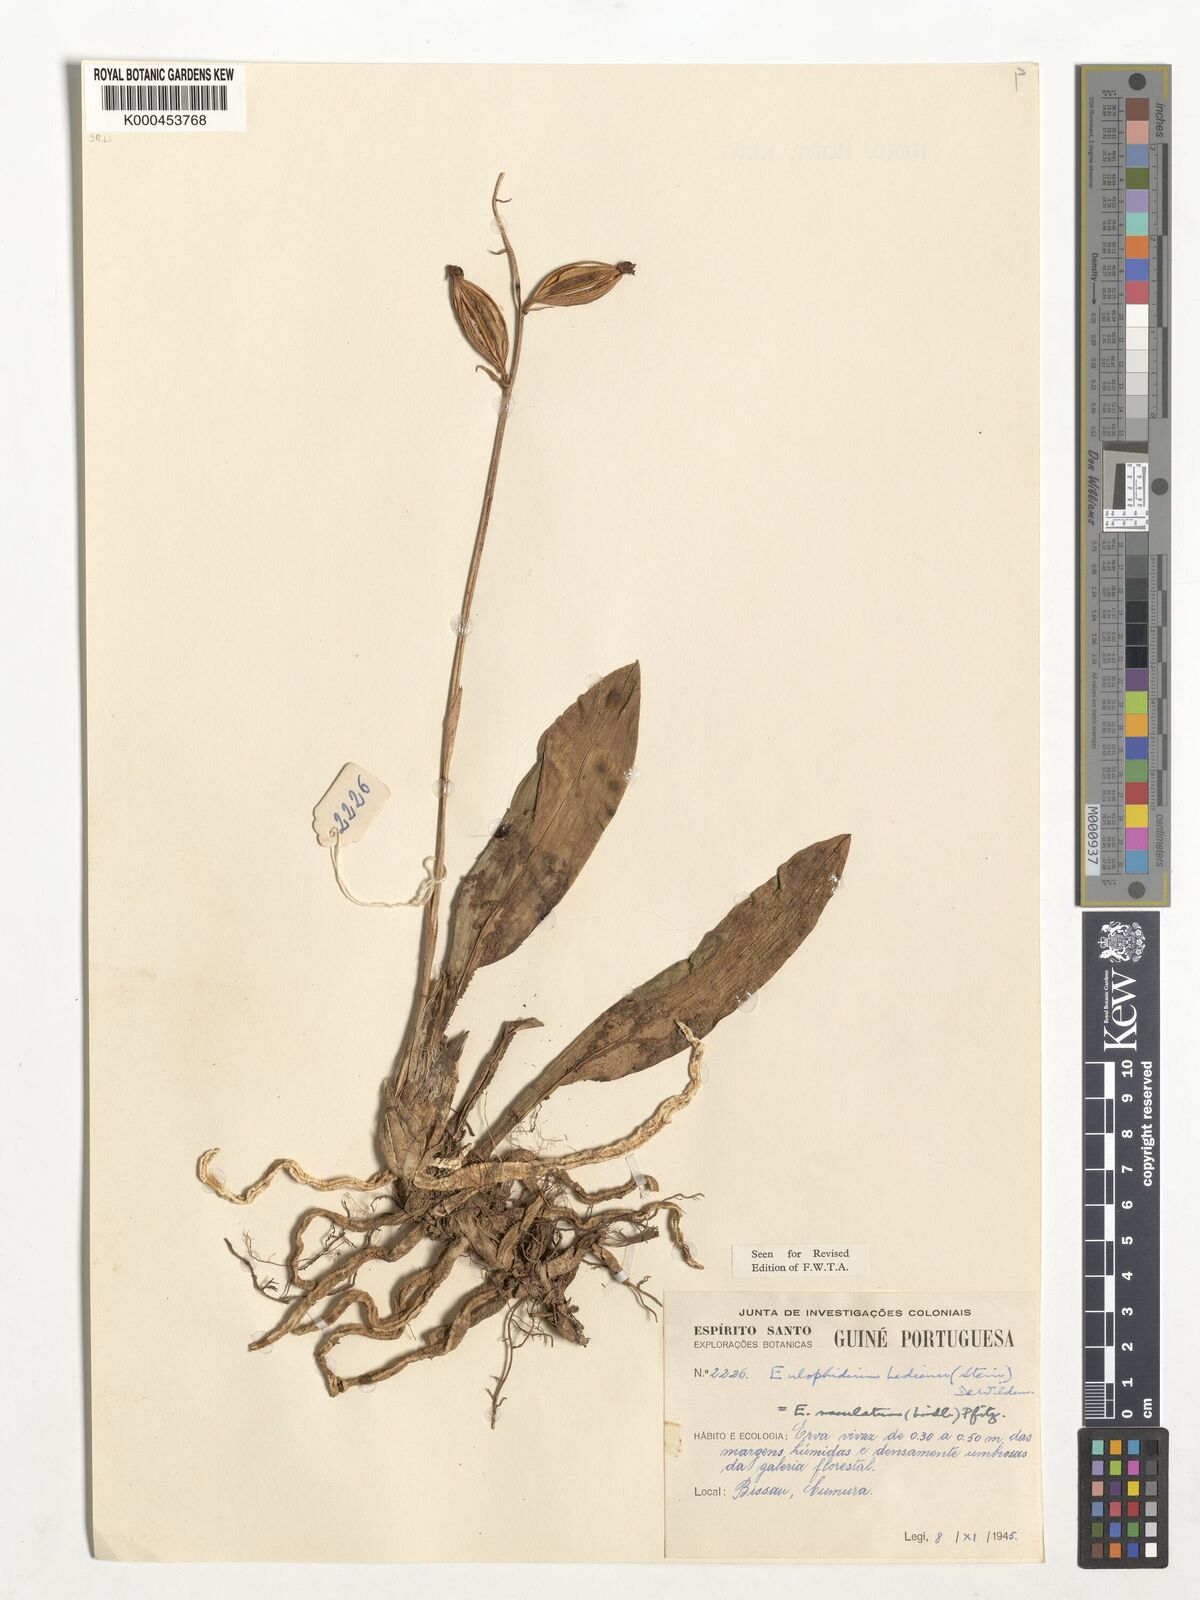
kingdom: Plantae
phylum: Tracheophyta
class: Liliopsida
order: Asparagales
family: Orchidaceae
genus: Eulophia
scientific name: Eulophia maculata
